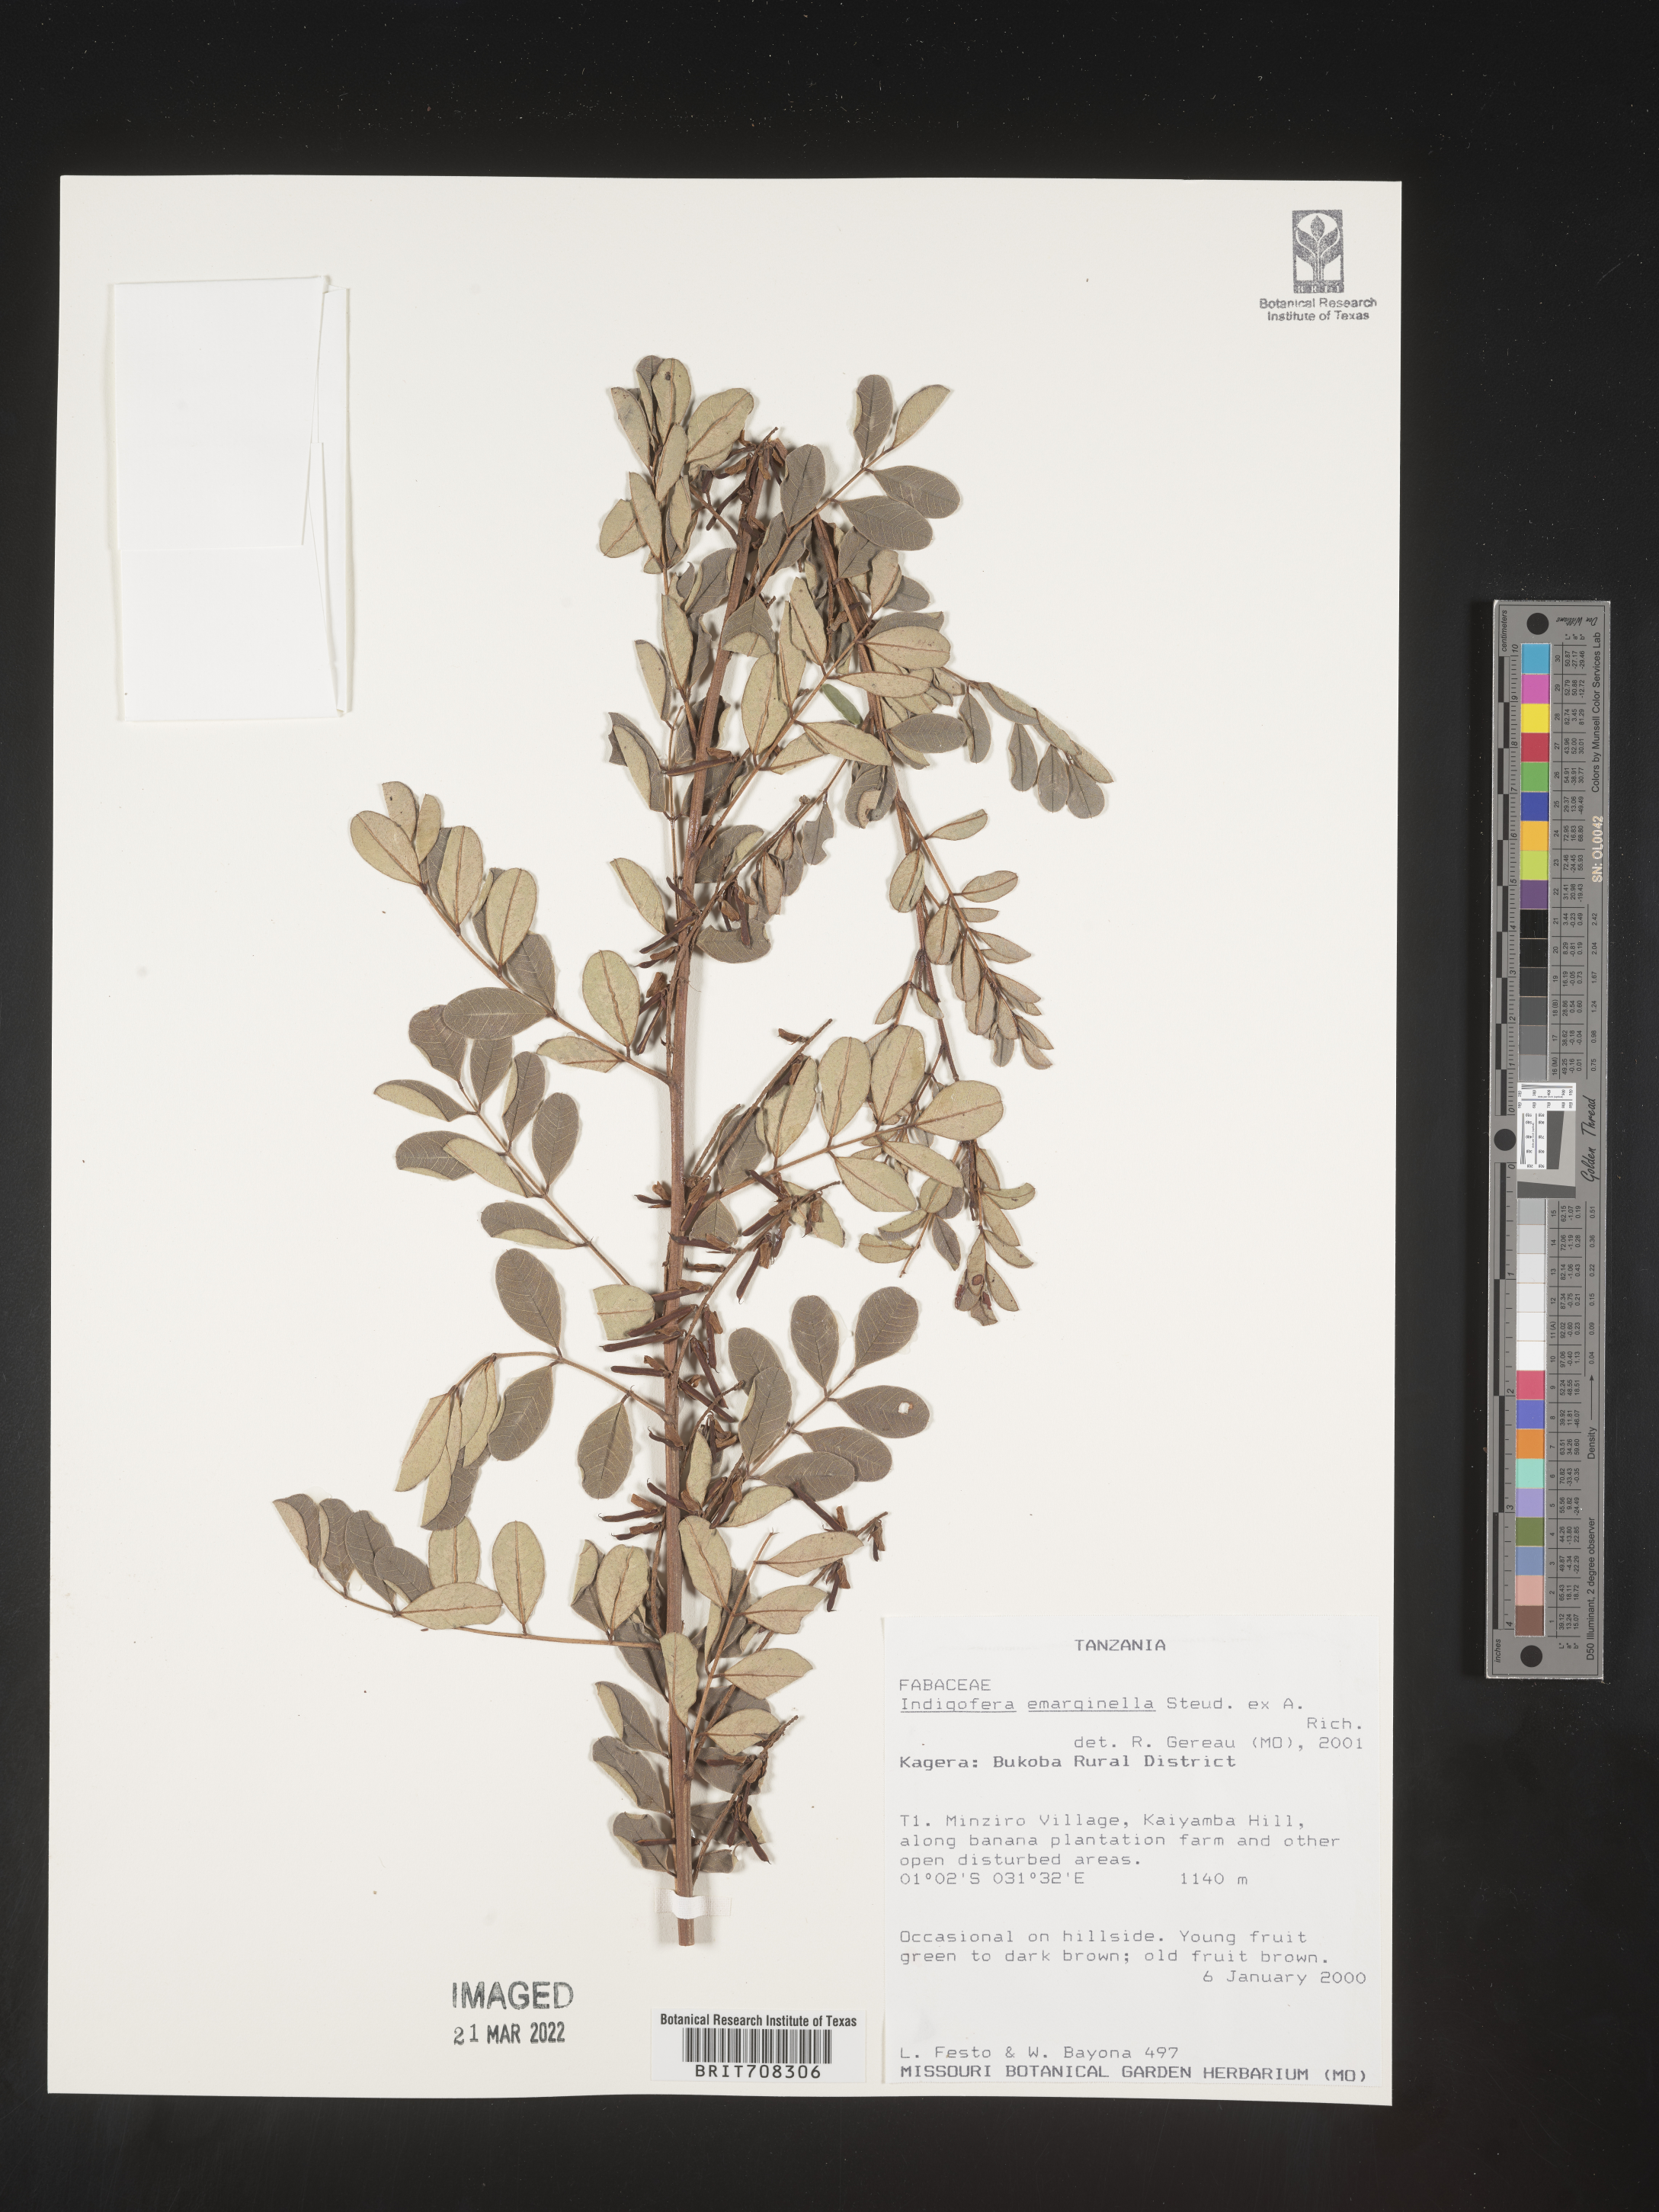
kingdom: Plantae
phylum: Tracheophyta
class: Magnoliopsida
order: Fabales
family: Fabaceae
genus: Indigofera
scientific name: Indigofera
